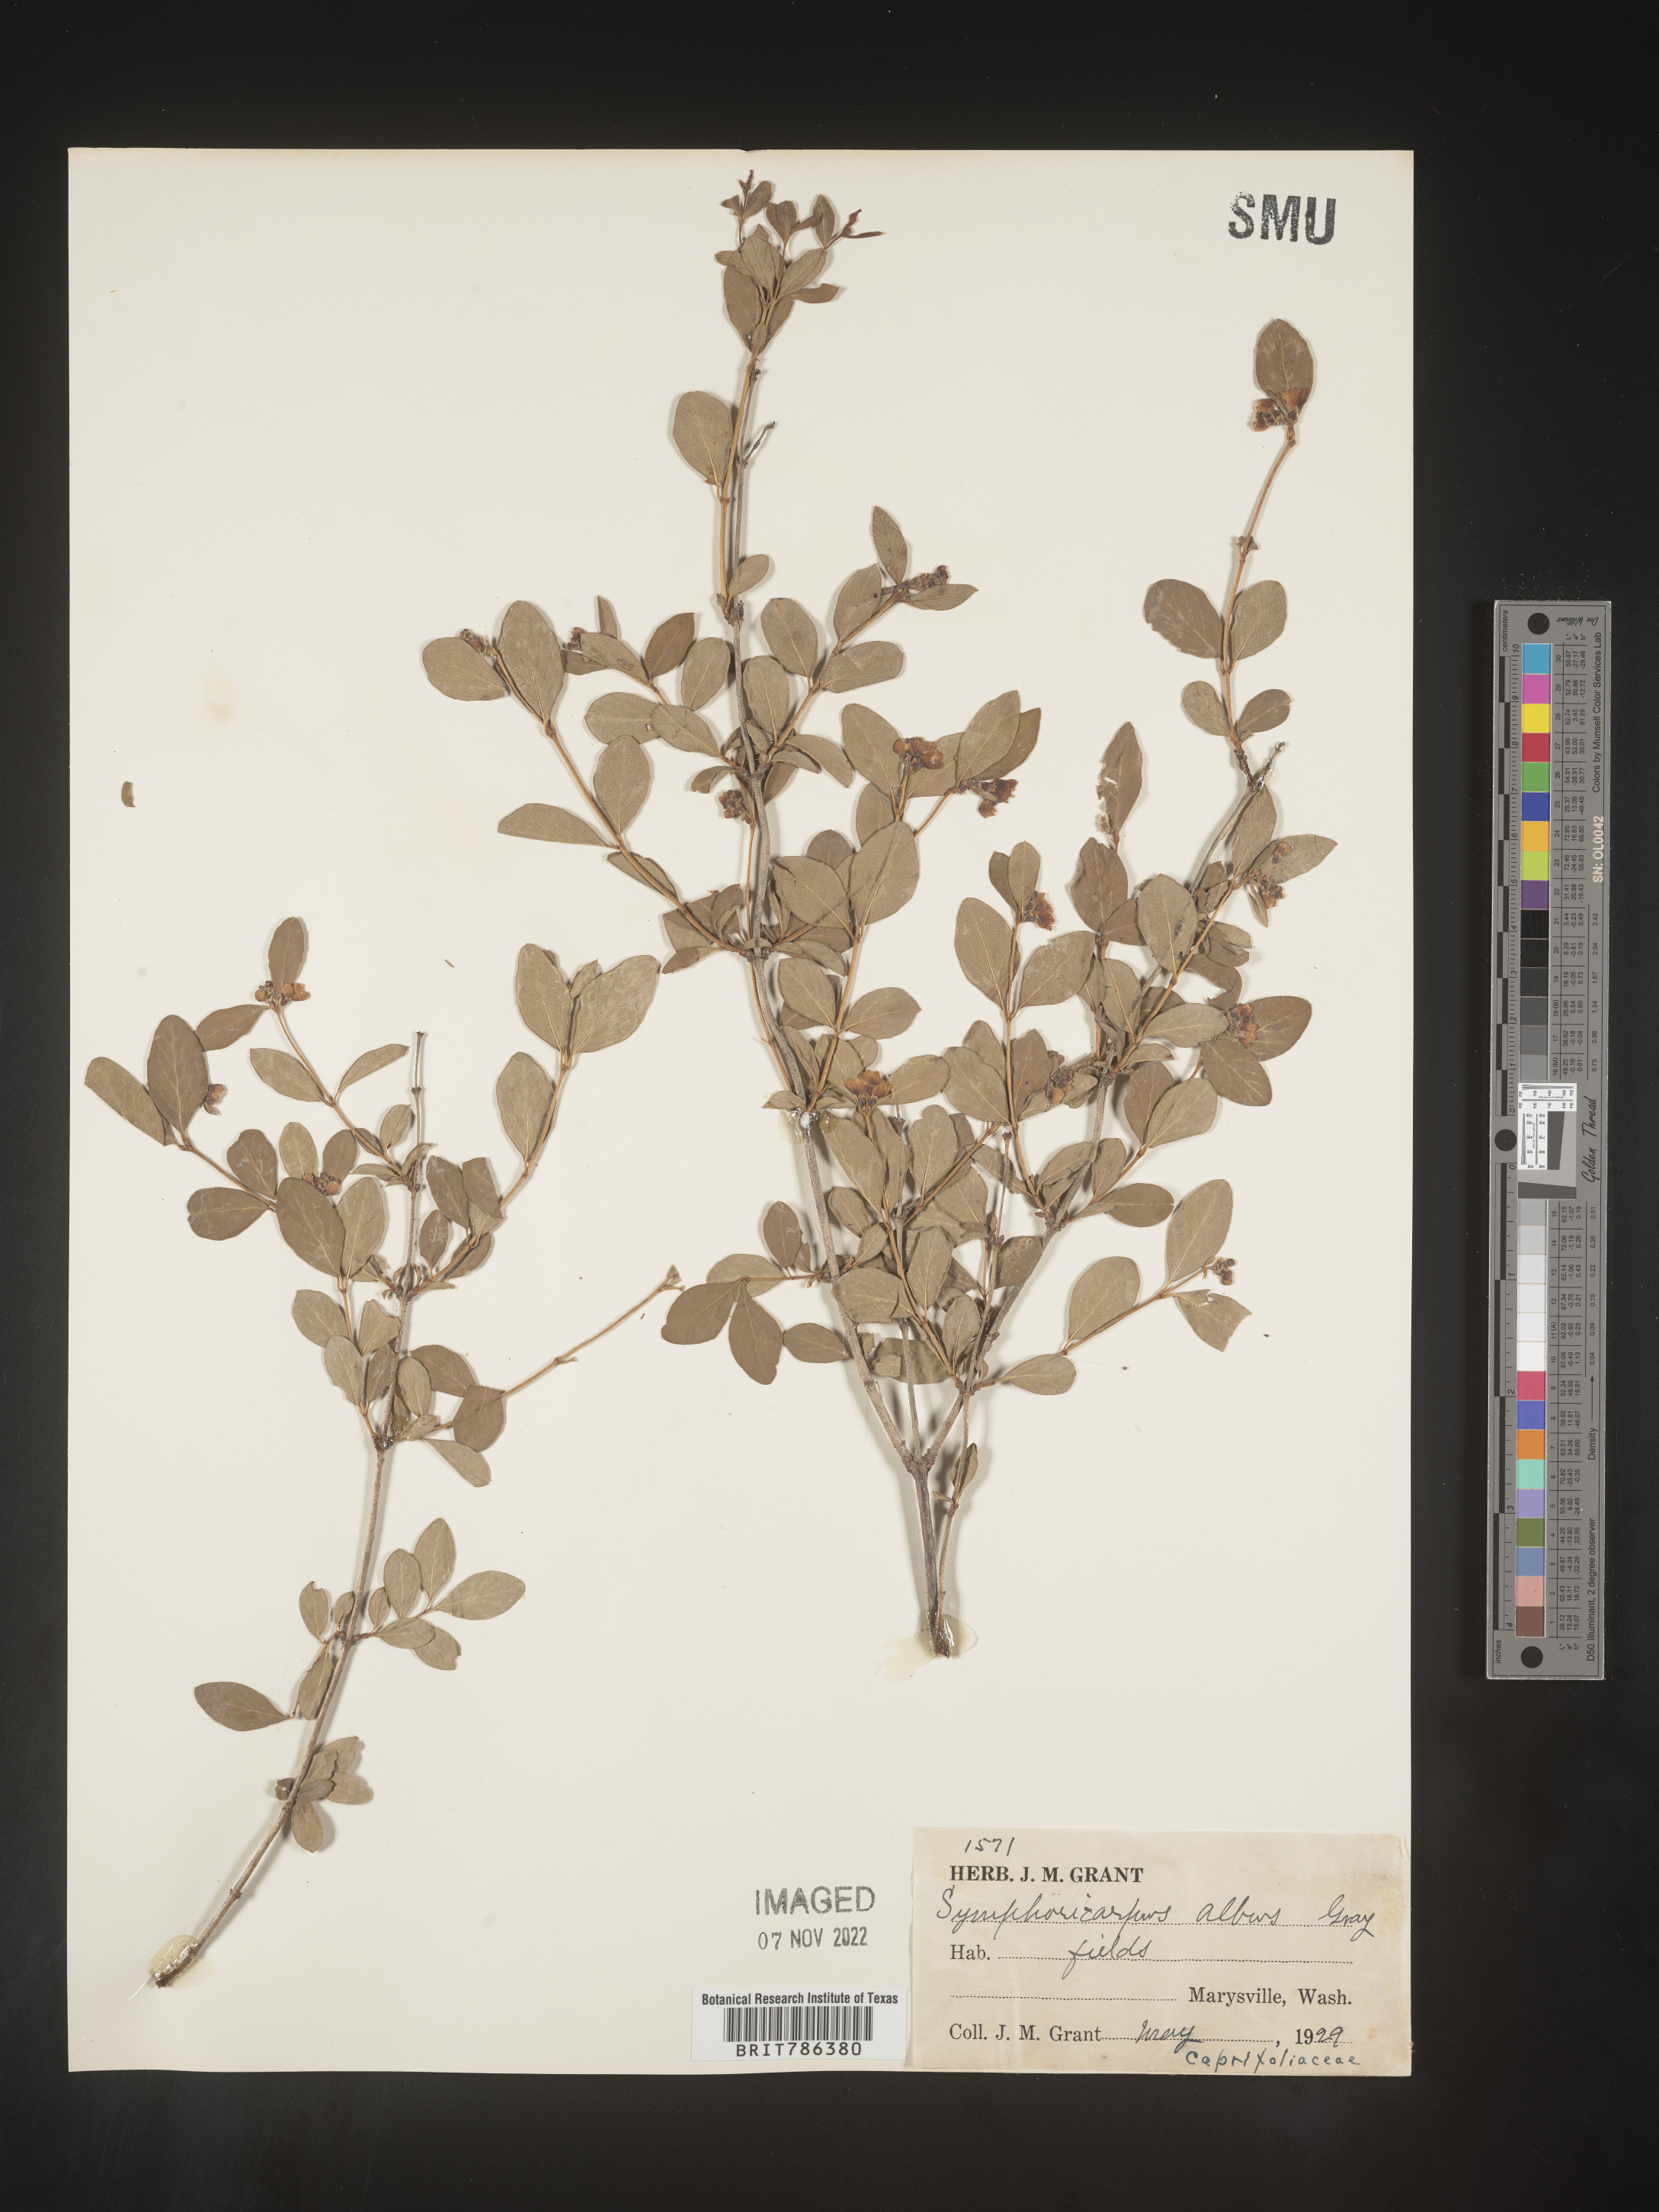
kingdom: Plantae
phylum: Tracheophyta
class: Magnoliopsida
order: Dipsacales
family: Caprifoliaceae
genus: Symphoricarpos
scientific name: Symphoricarpos albus
